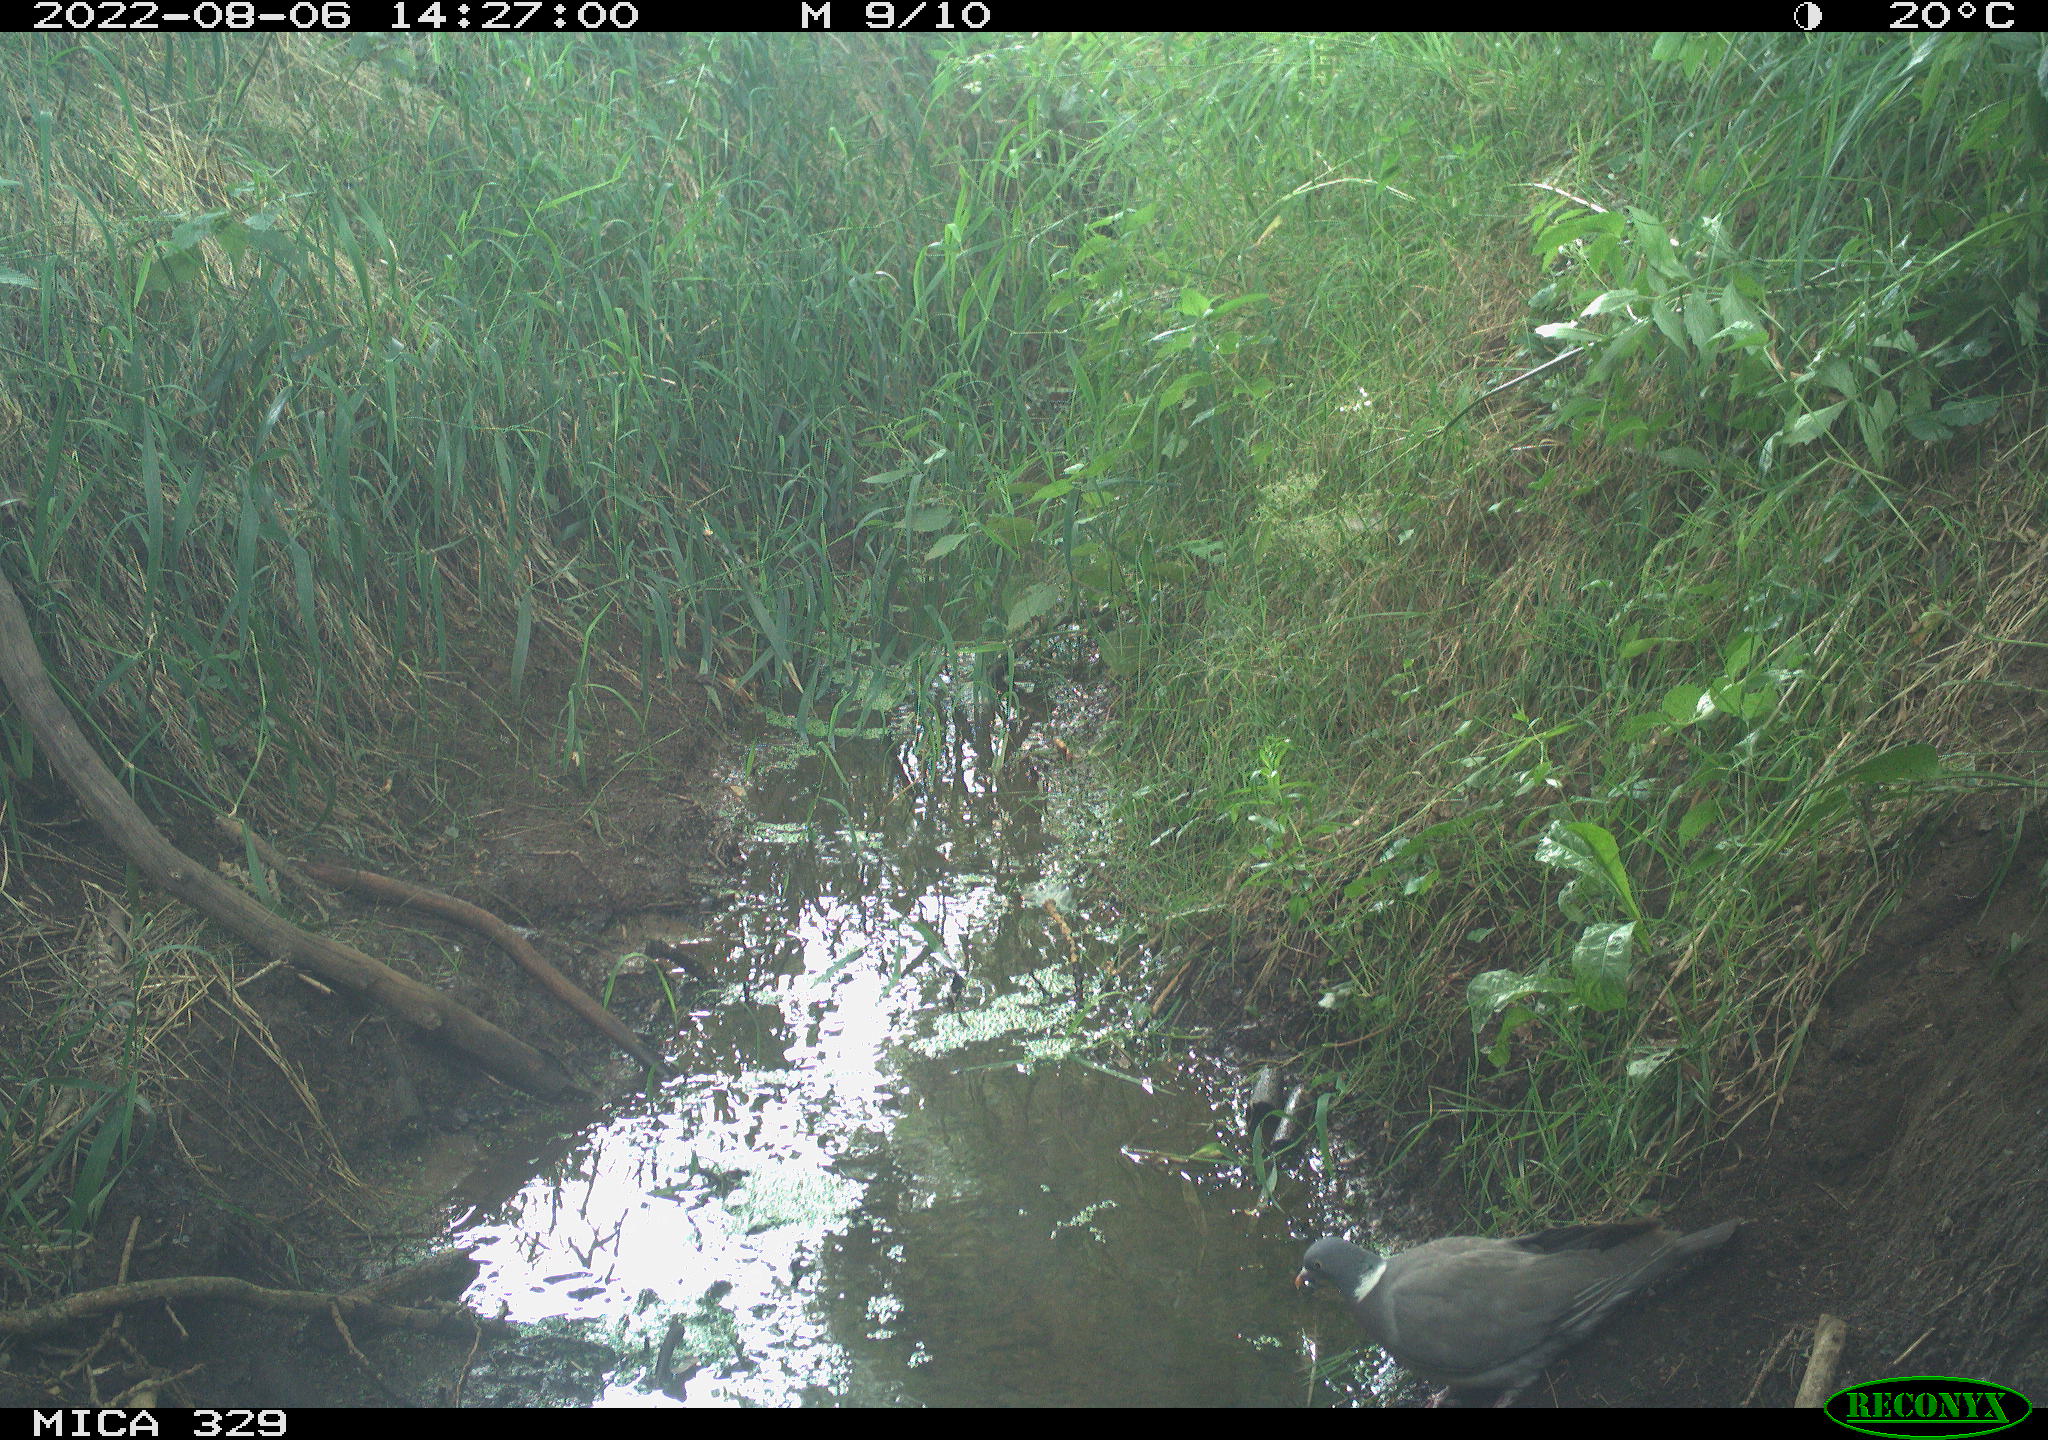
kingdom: Animalia
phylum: Chordata
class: Aves
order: Columbiformes
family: Columbidae
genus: Columba
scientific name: Columba palumbus
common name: Common wood pigeon
